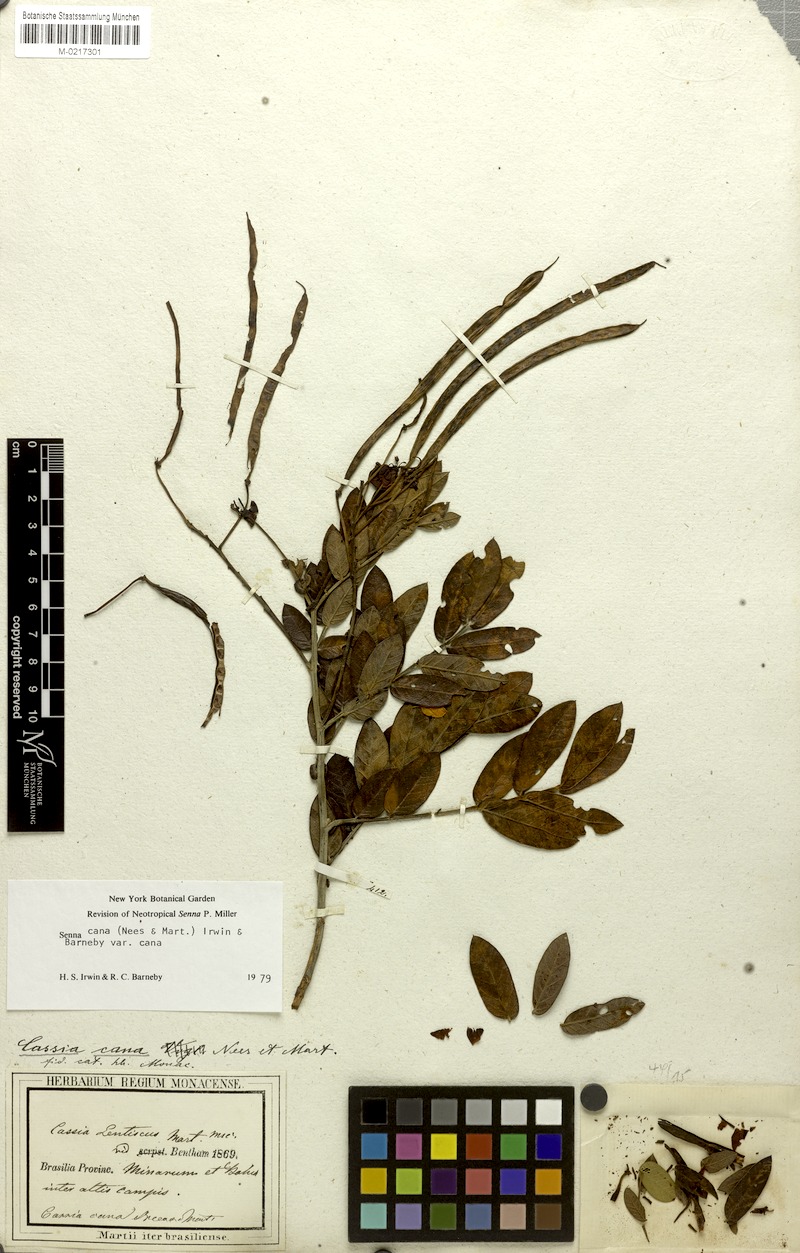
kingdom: Plantae
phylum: Tracheophyta
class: Magnoliopsida
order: Fabales
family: Fabaceae
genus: Senna
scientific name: Senna cana
